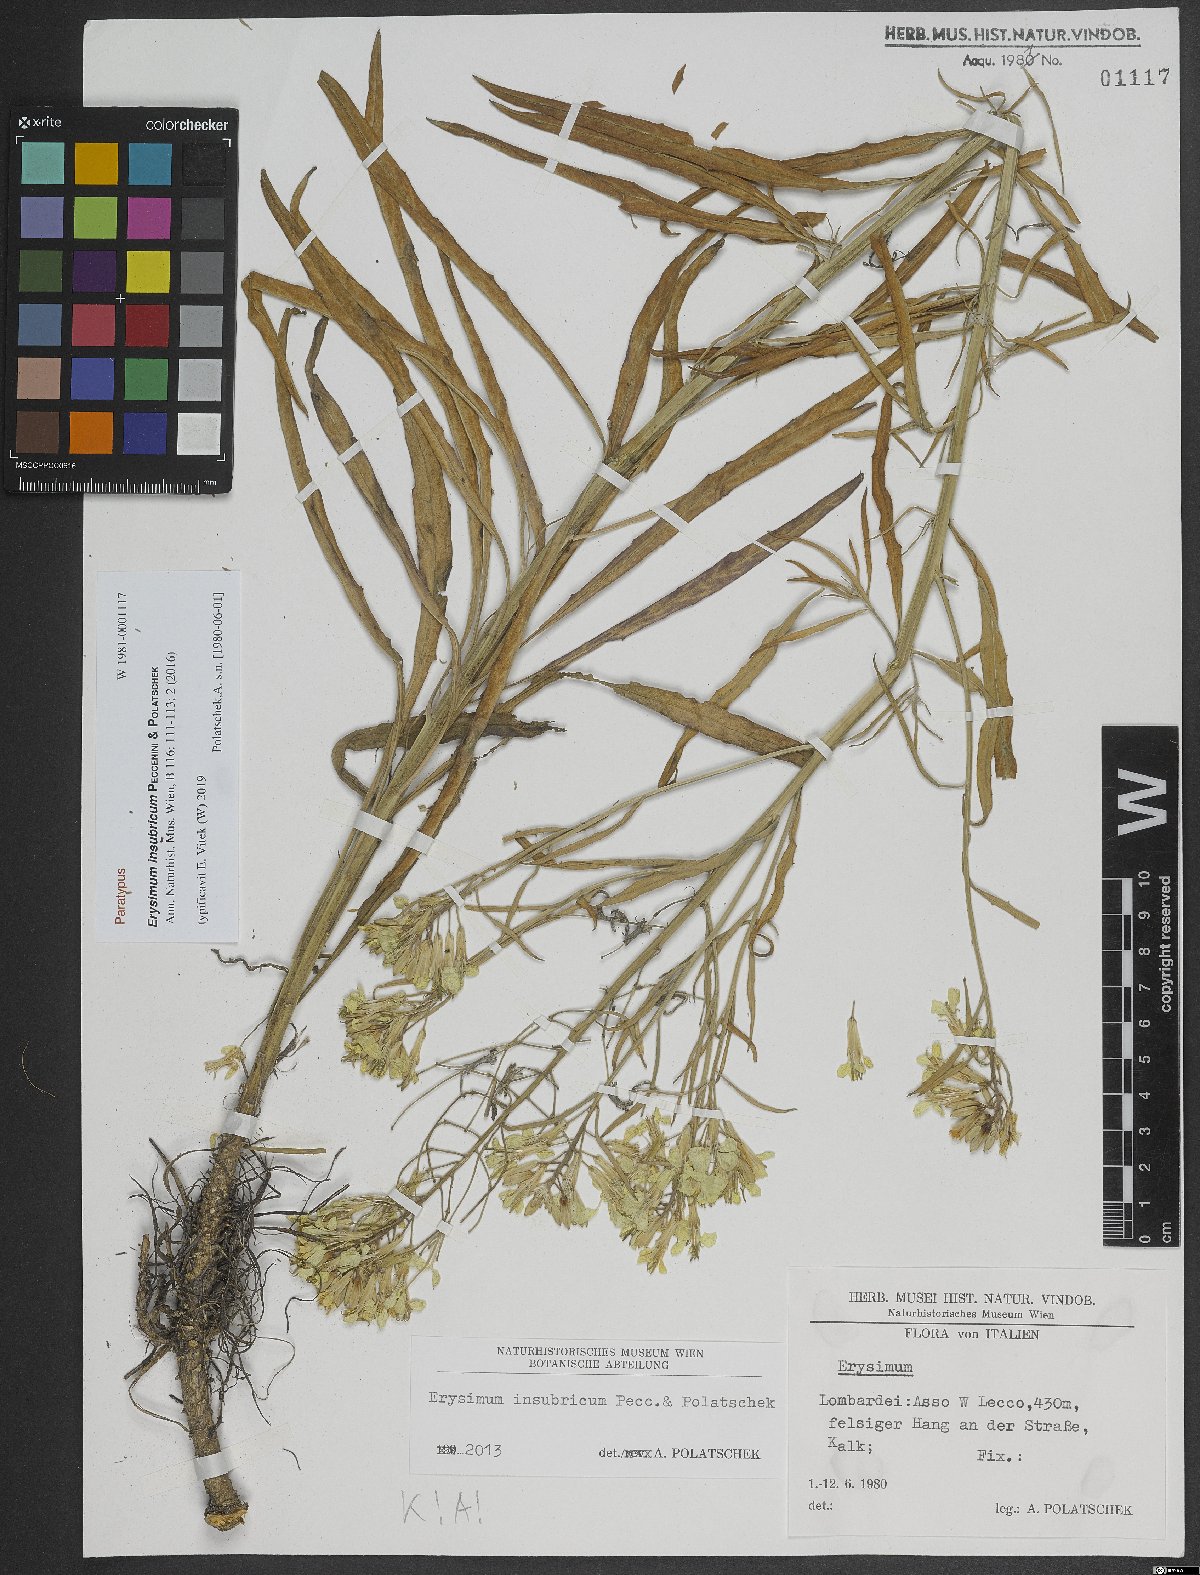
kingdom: Plantae
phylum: Tracheophyta
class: Magnoliopsida
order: Brassicales
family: Brassicaceae
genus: Erysimum
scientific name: Erysimum insubricum
